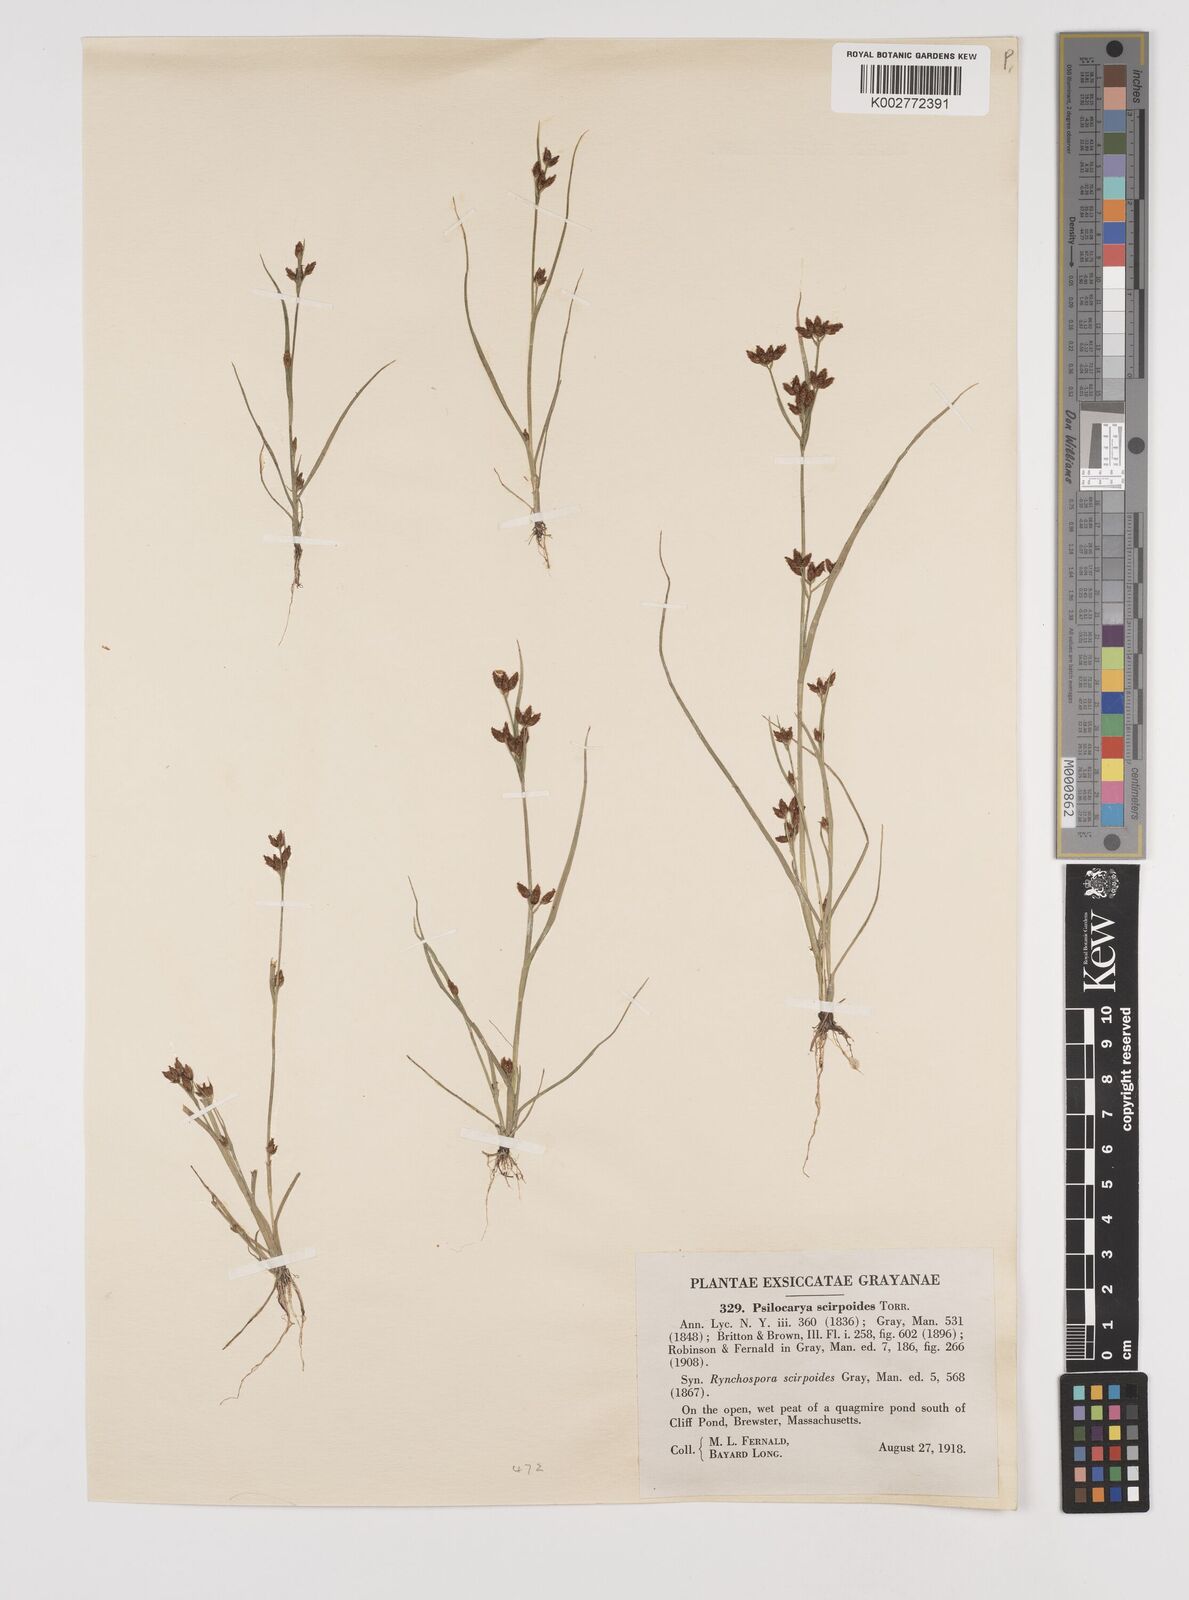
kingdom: Plantae
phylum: Tracheophyta
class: Liliopsida
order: Poales
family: Cyperaceae
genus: Rhynchospora
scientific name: Rhynchospora scirpoides
